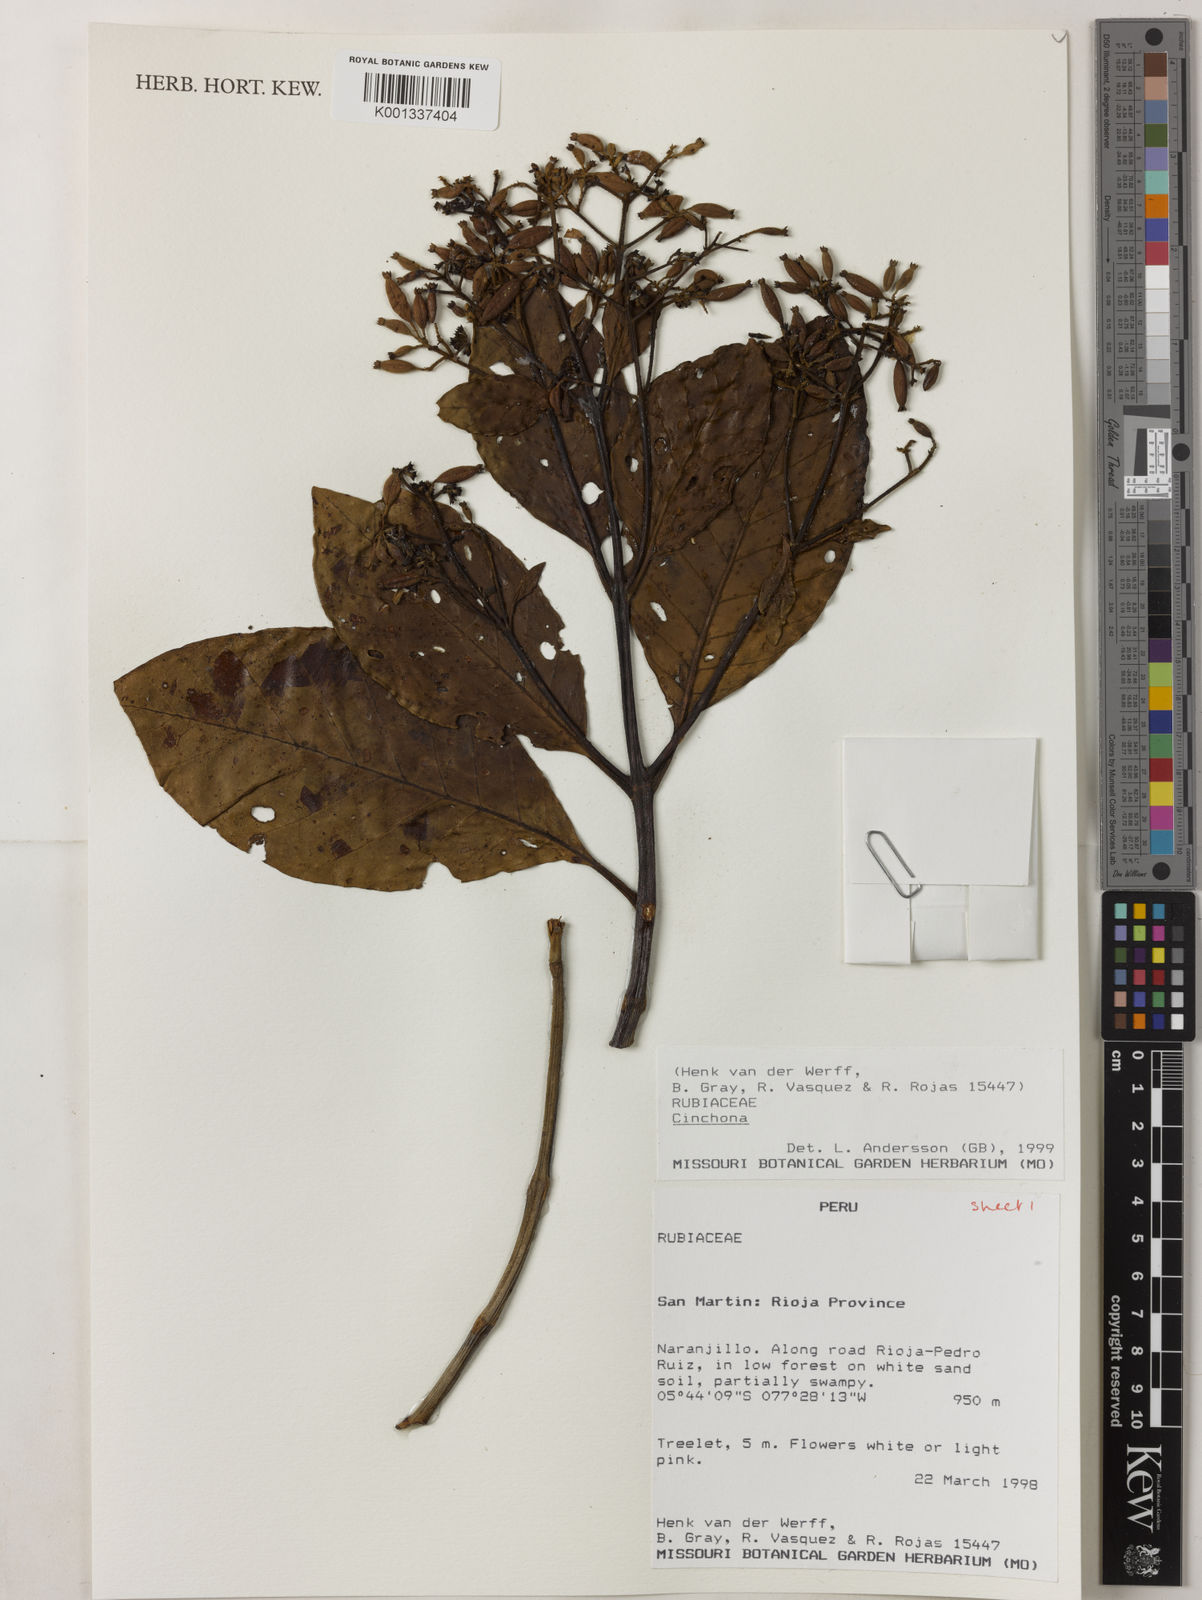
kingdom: Plantae
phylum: Tracheophyta
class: Magnoliopsida
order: Gentianales
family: Rubiaceae
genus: Cinchona
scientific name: Cinchona
